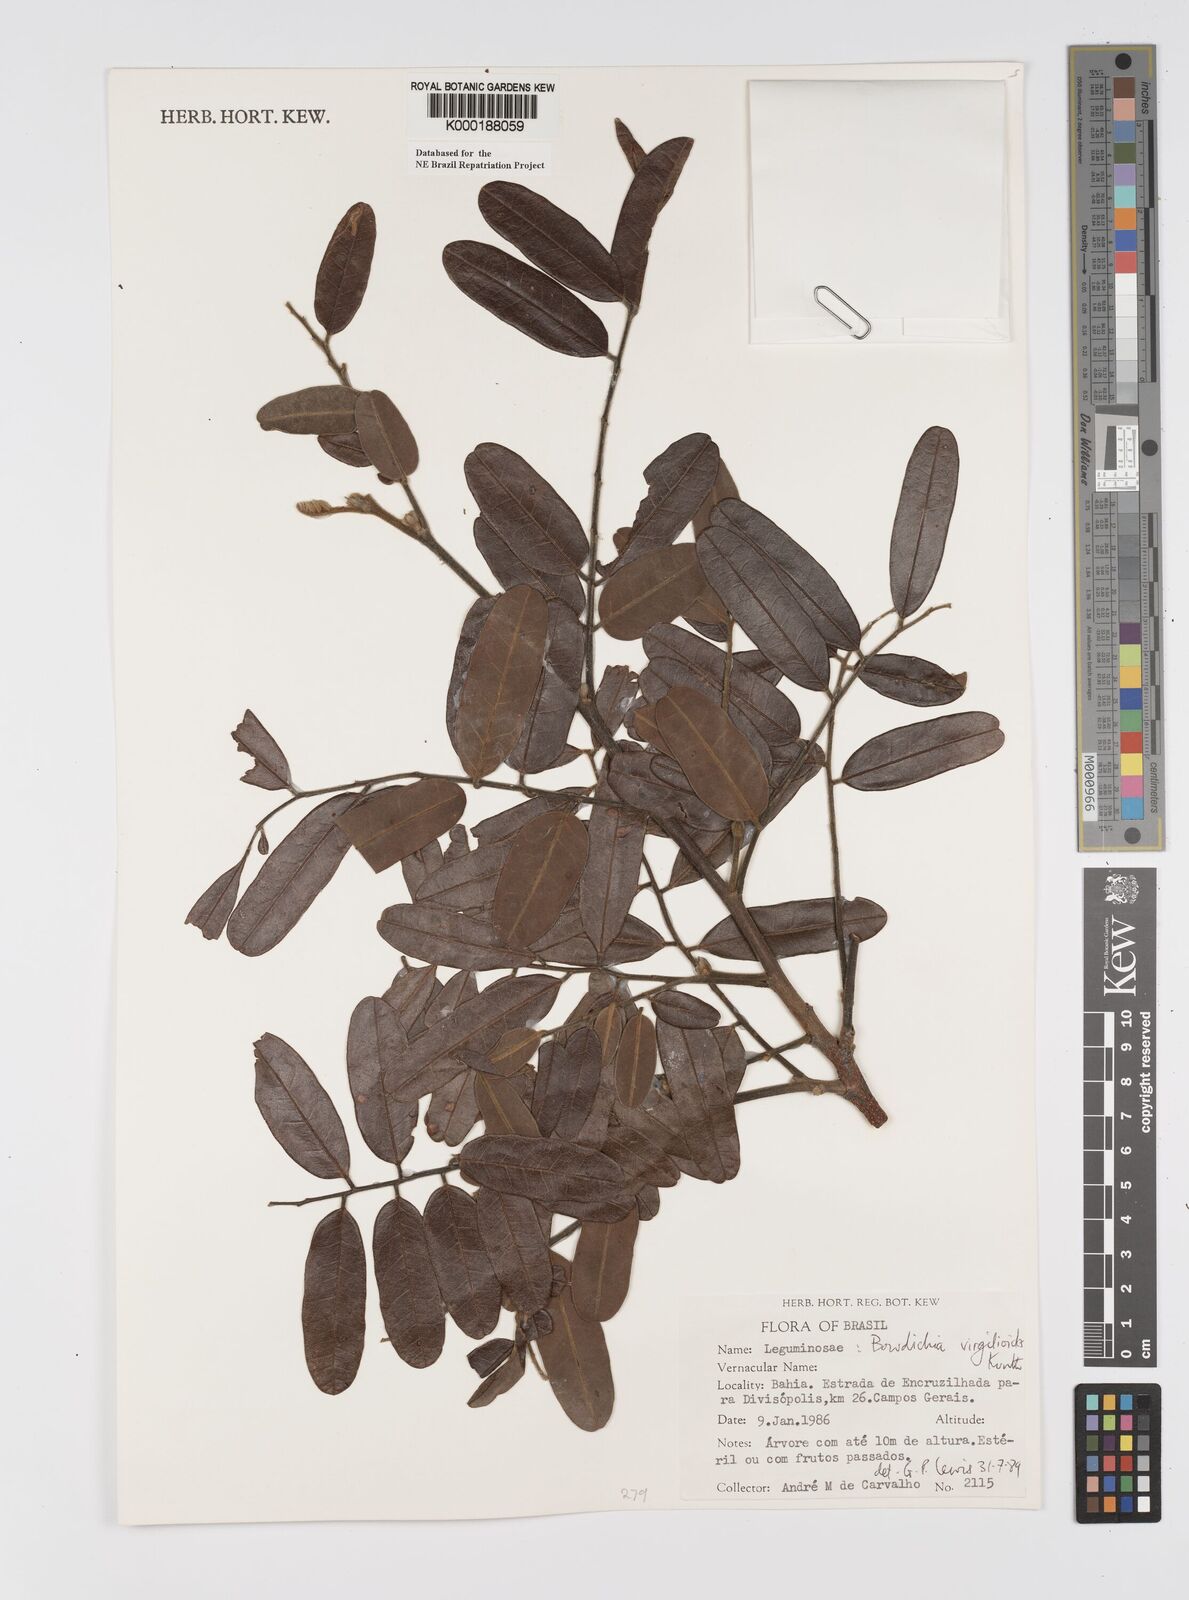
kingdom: Plantae
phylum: Tracheophyta
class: Magnoliopsida
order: Fabales
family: Fabaceae
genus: Bowdichia
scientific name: Bowdichia virgilioides
